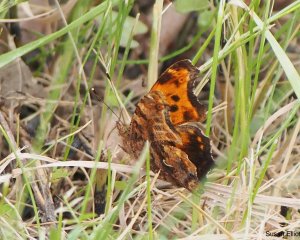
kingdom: Animalia
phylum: Arthropoda
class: Insecta
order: Lepidoptera
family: Nymphalidae
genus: Polygonia
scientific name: Polygonia comma
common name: Eastern Comma
